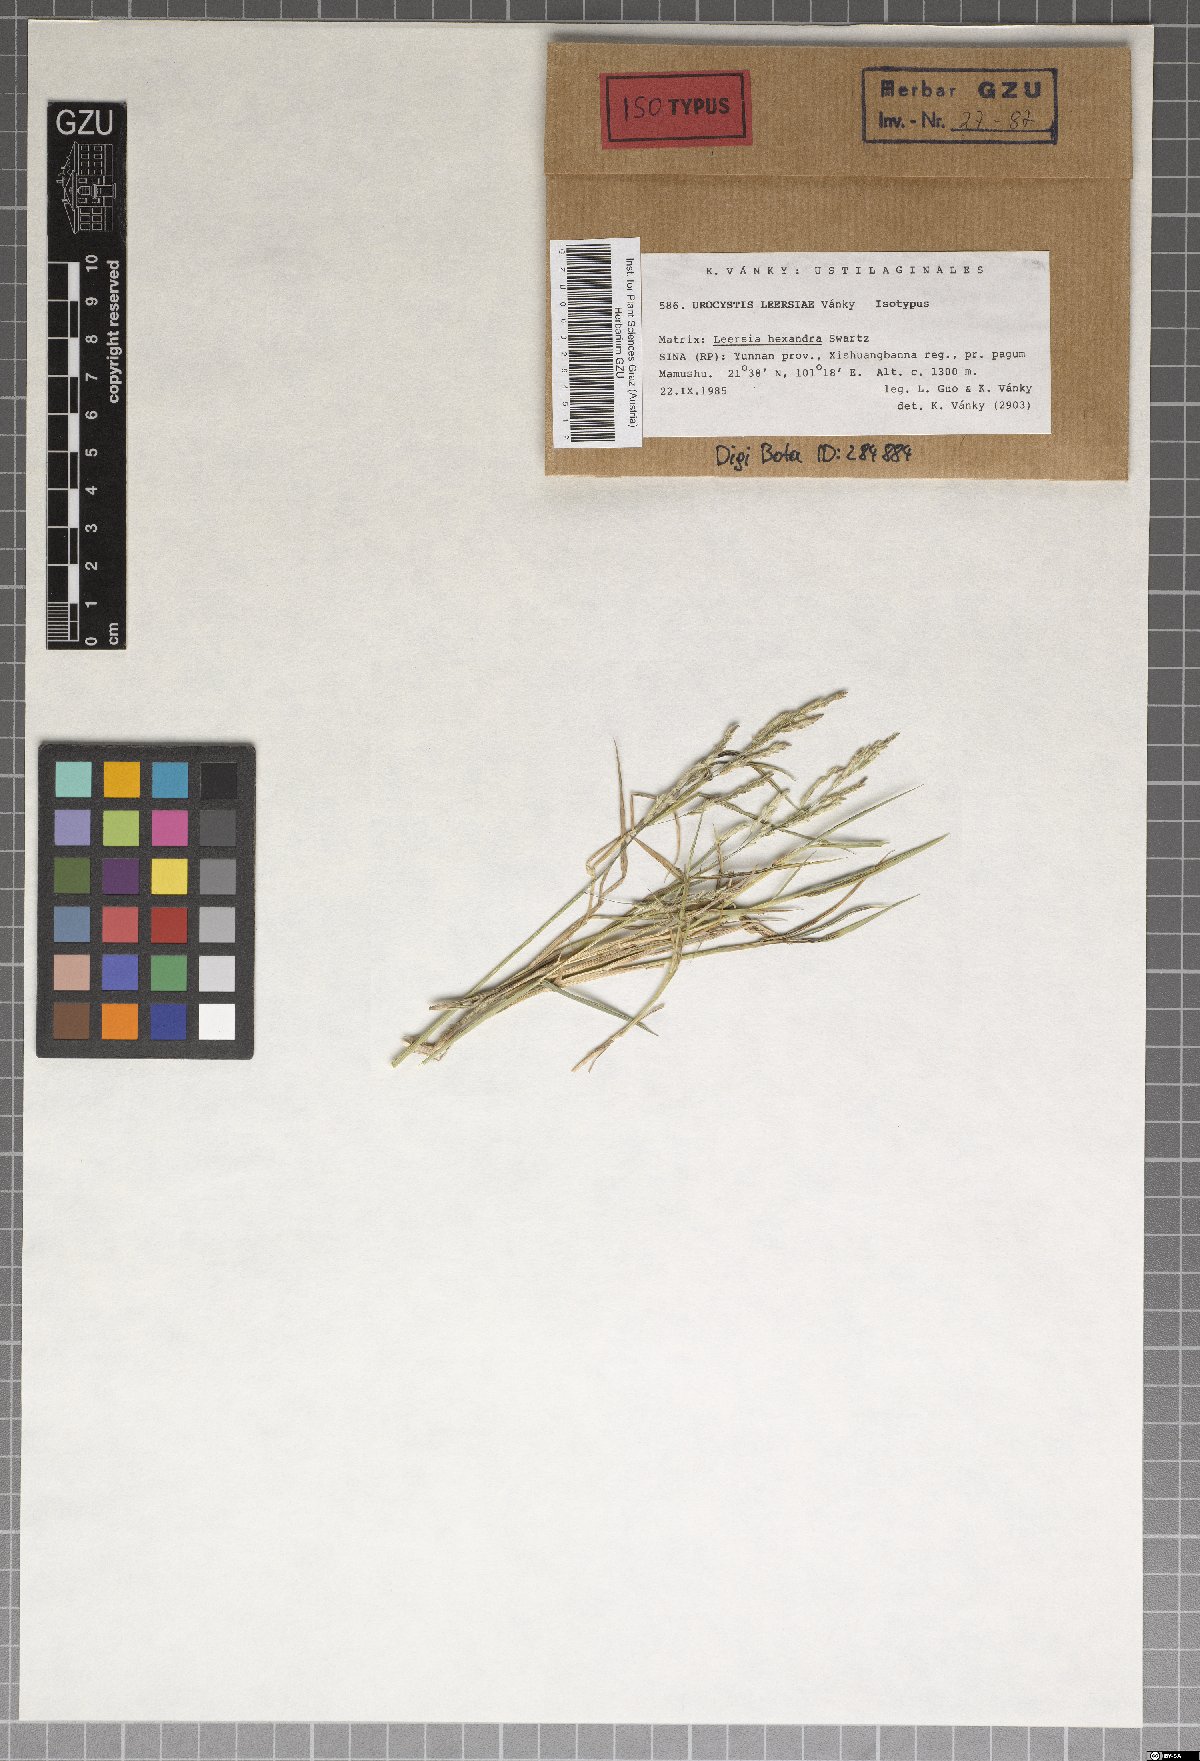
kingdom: Fungi
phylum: Basidiomycota
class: Ustilaginomycetes
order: Urocystidales
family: Urocystidaceae
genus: Urocystis
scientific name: Urocystis leersiae
